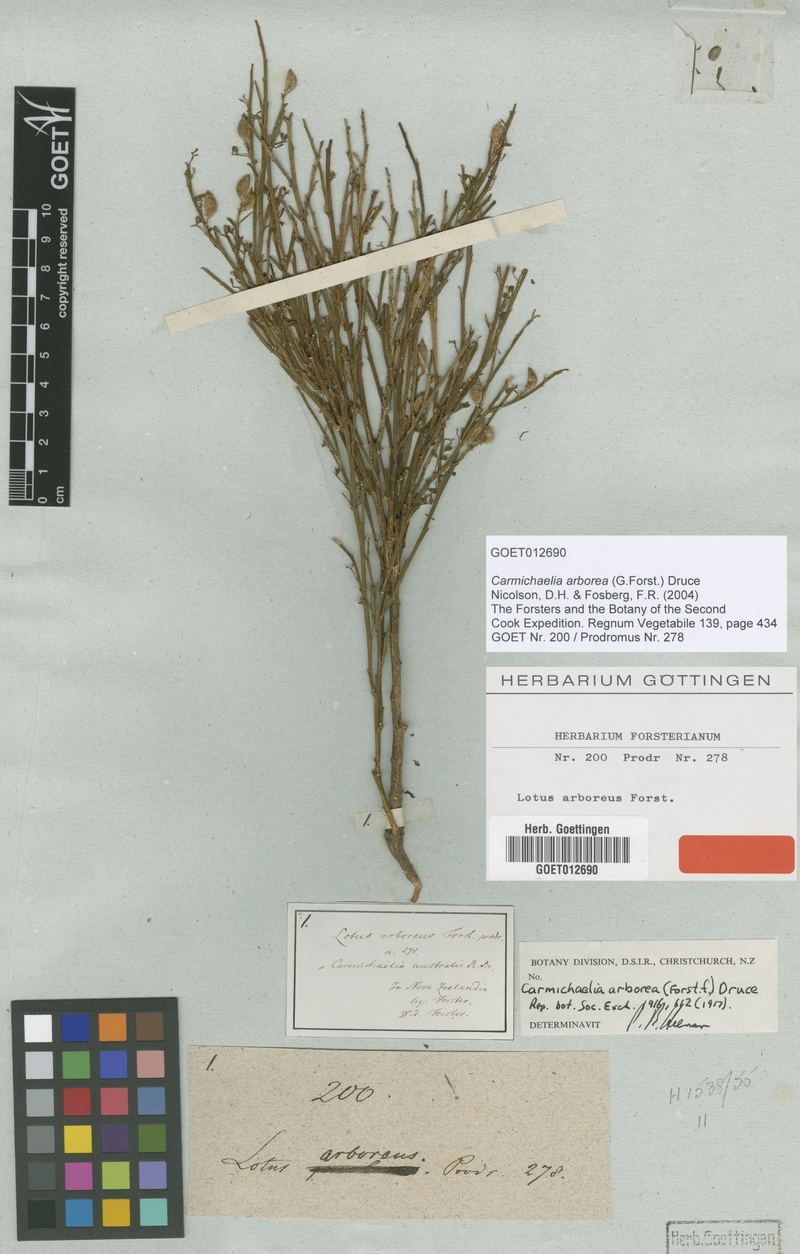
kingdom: Plantae
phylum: Tracheophyta
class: Magnoliopsida
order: Fabales
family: Fabaceae
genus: Carmichaelia
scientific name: Carmichaelia arborea
